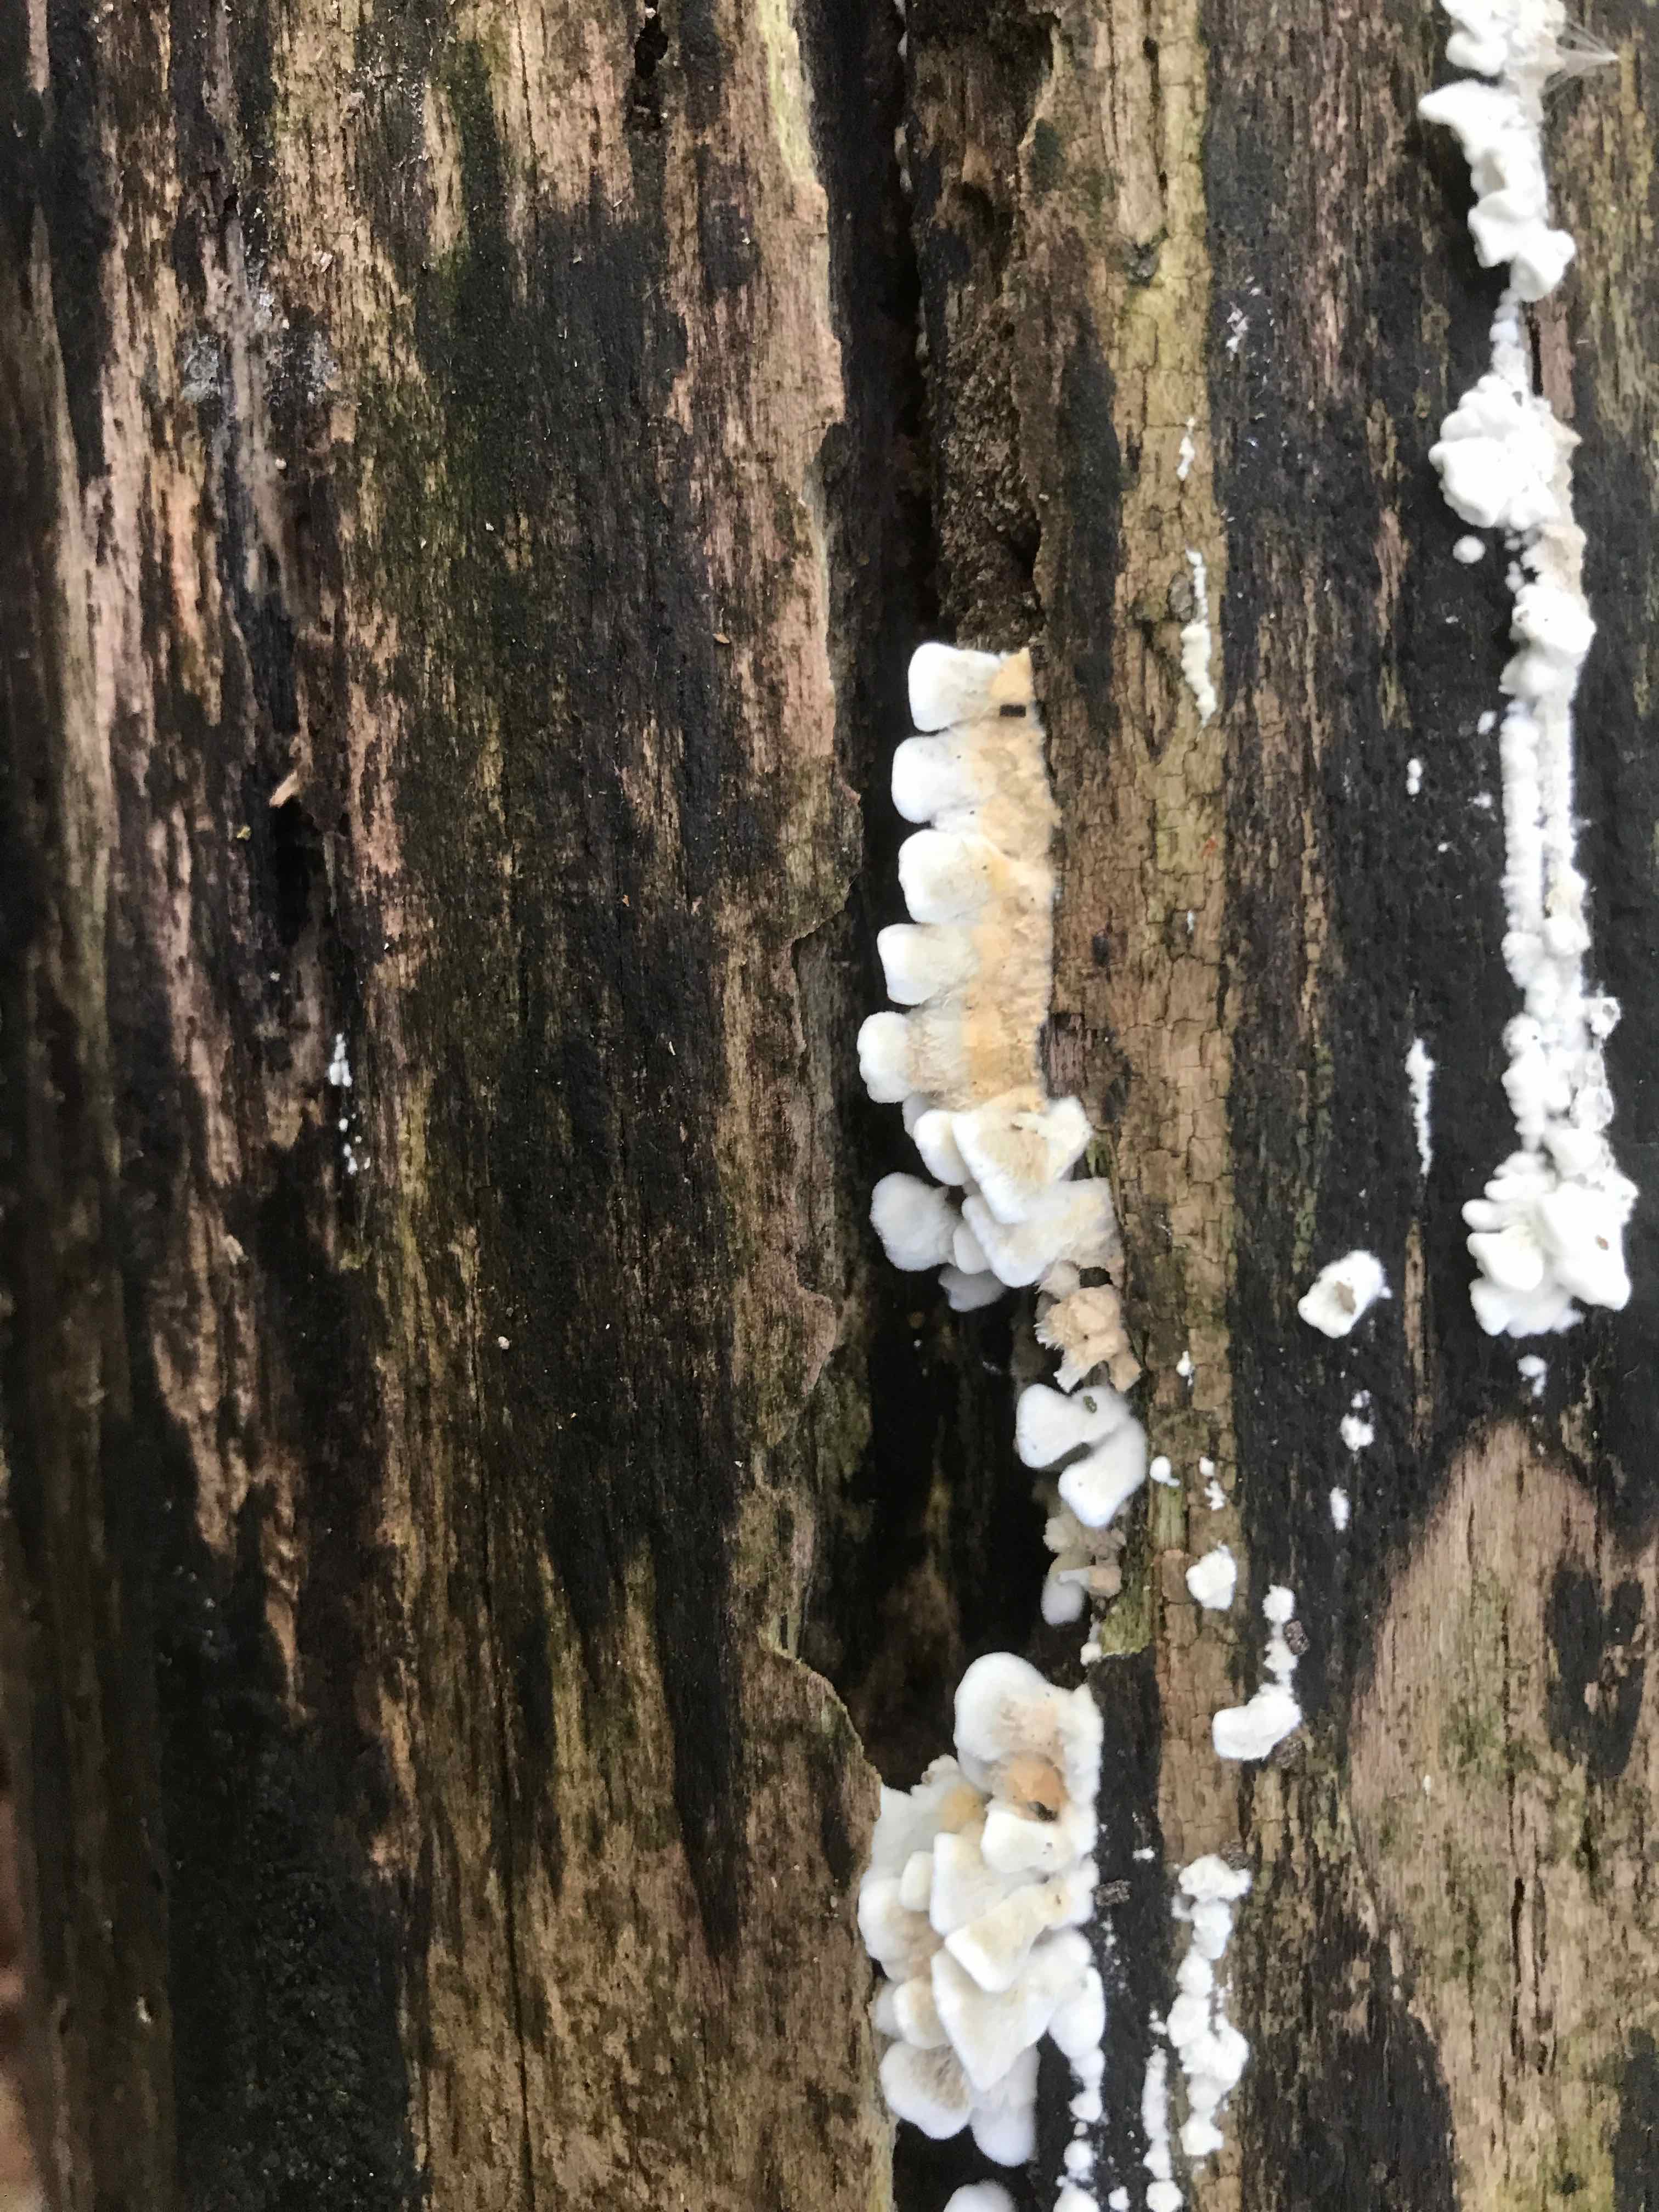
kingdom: Fungi
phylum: Basidiomycota
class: Agaricomycetes
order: Amylocorticiales
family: Amylocorticiaceae
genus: Plicaturopsis
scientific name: Plicaturopsis crispa
